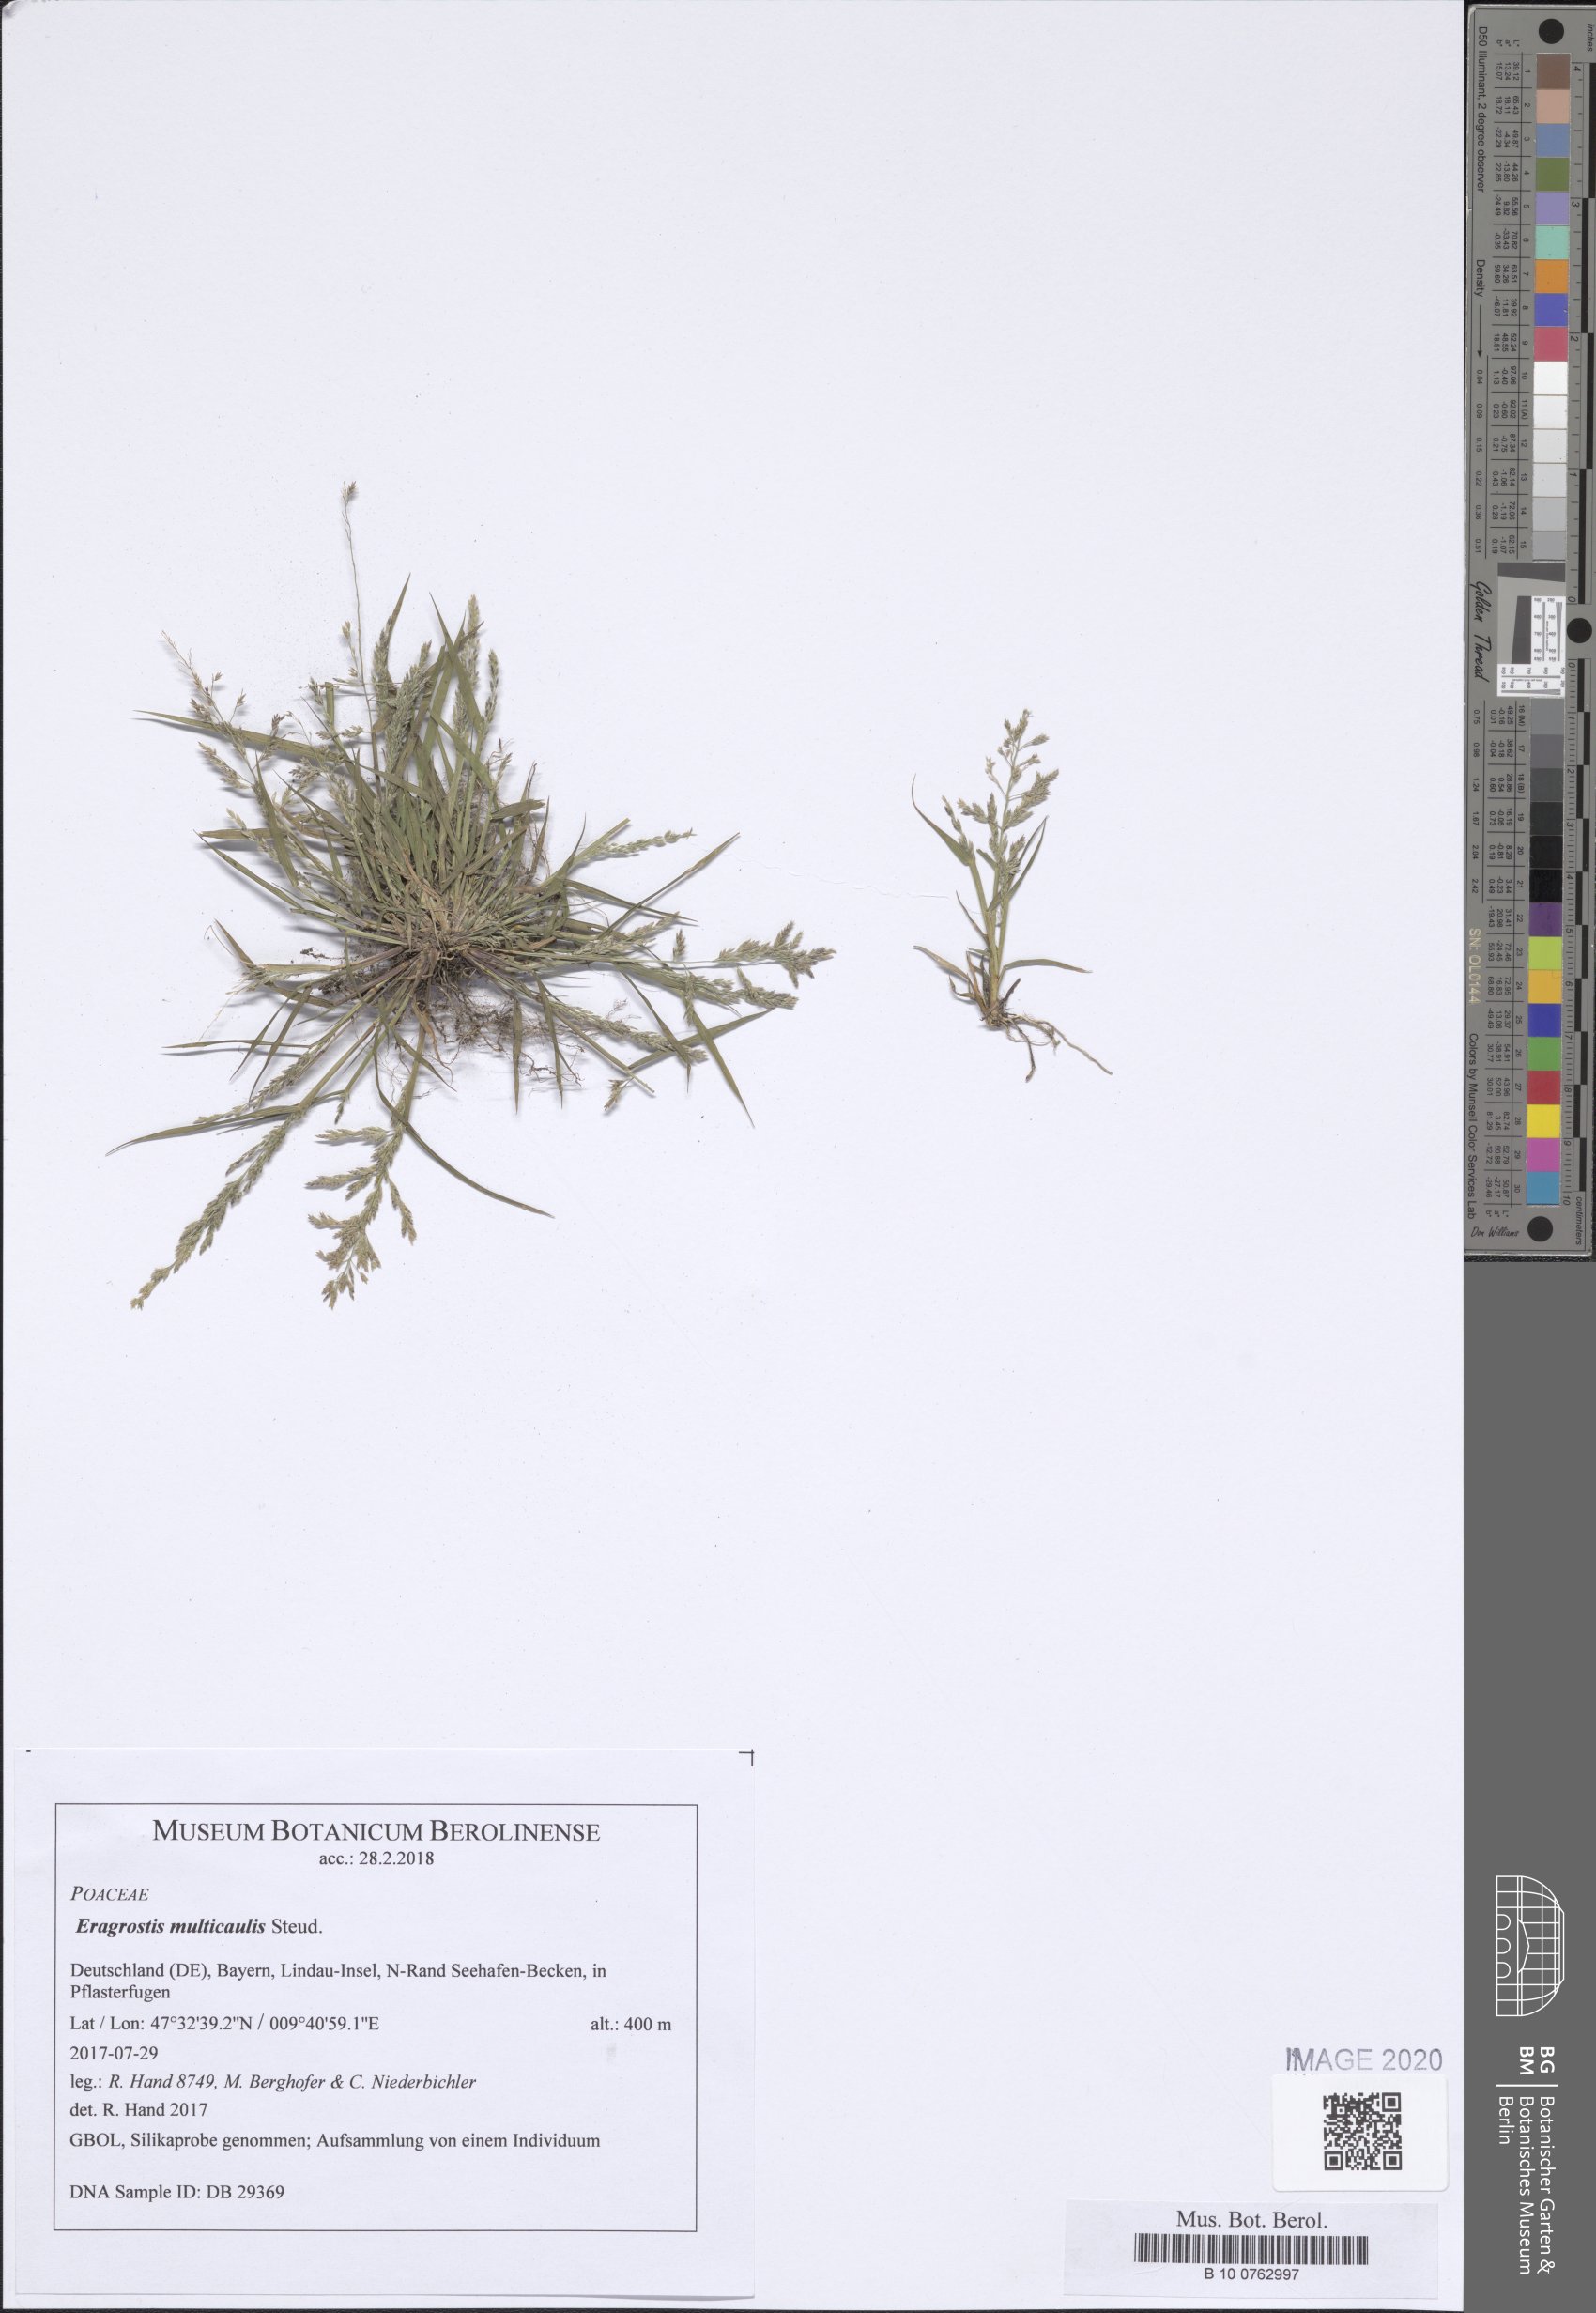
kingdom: Plantae
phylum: Tracheophyta
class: Liliopsida
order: Poales
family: Poaceae
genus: Eragrostis
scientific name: Eragrostis multicaulis
